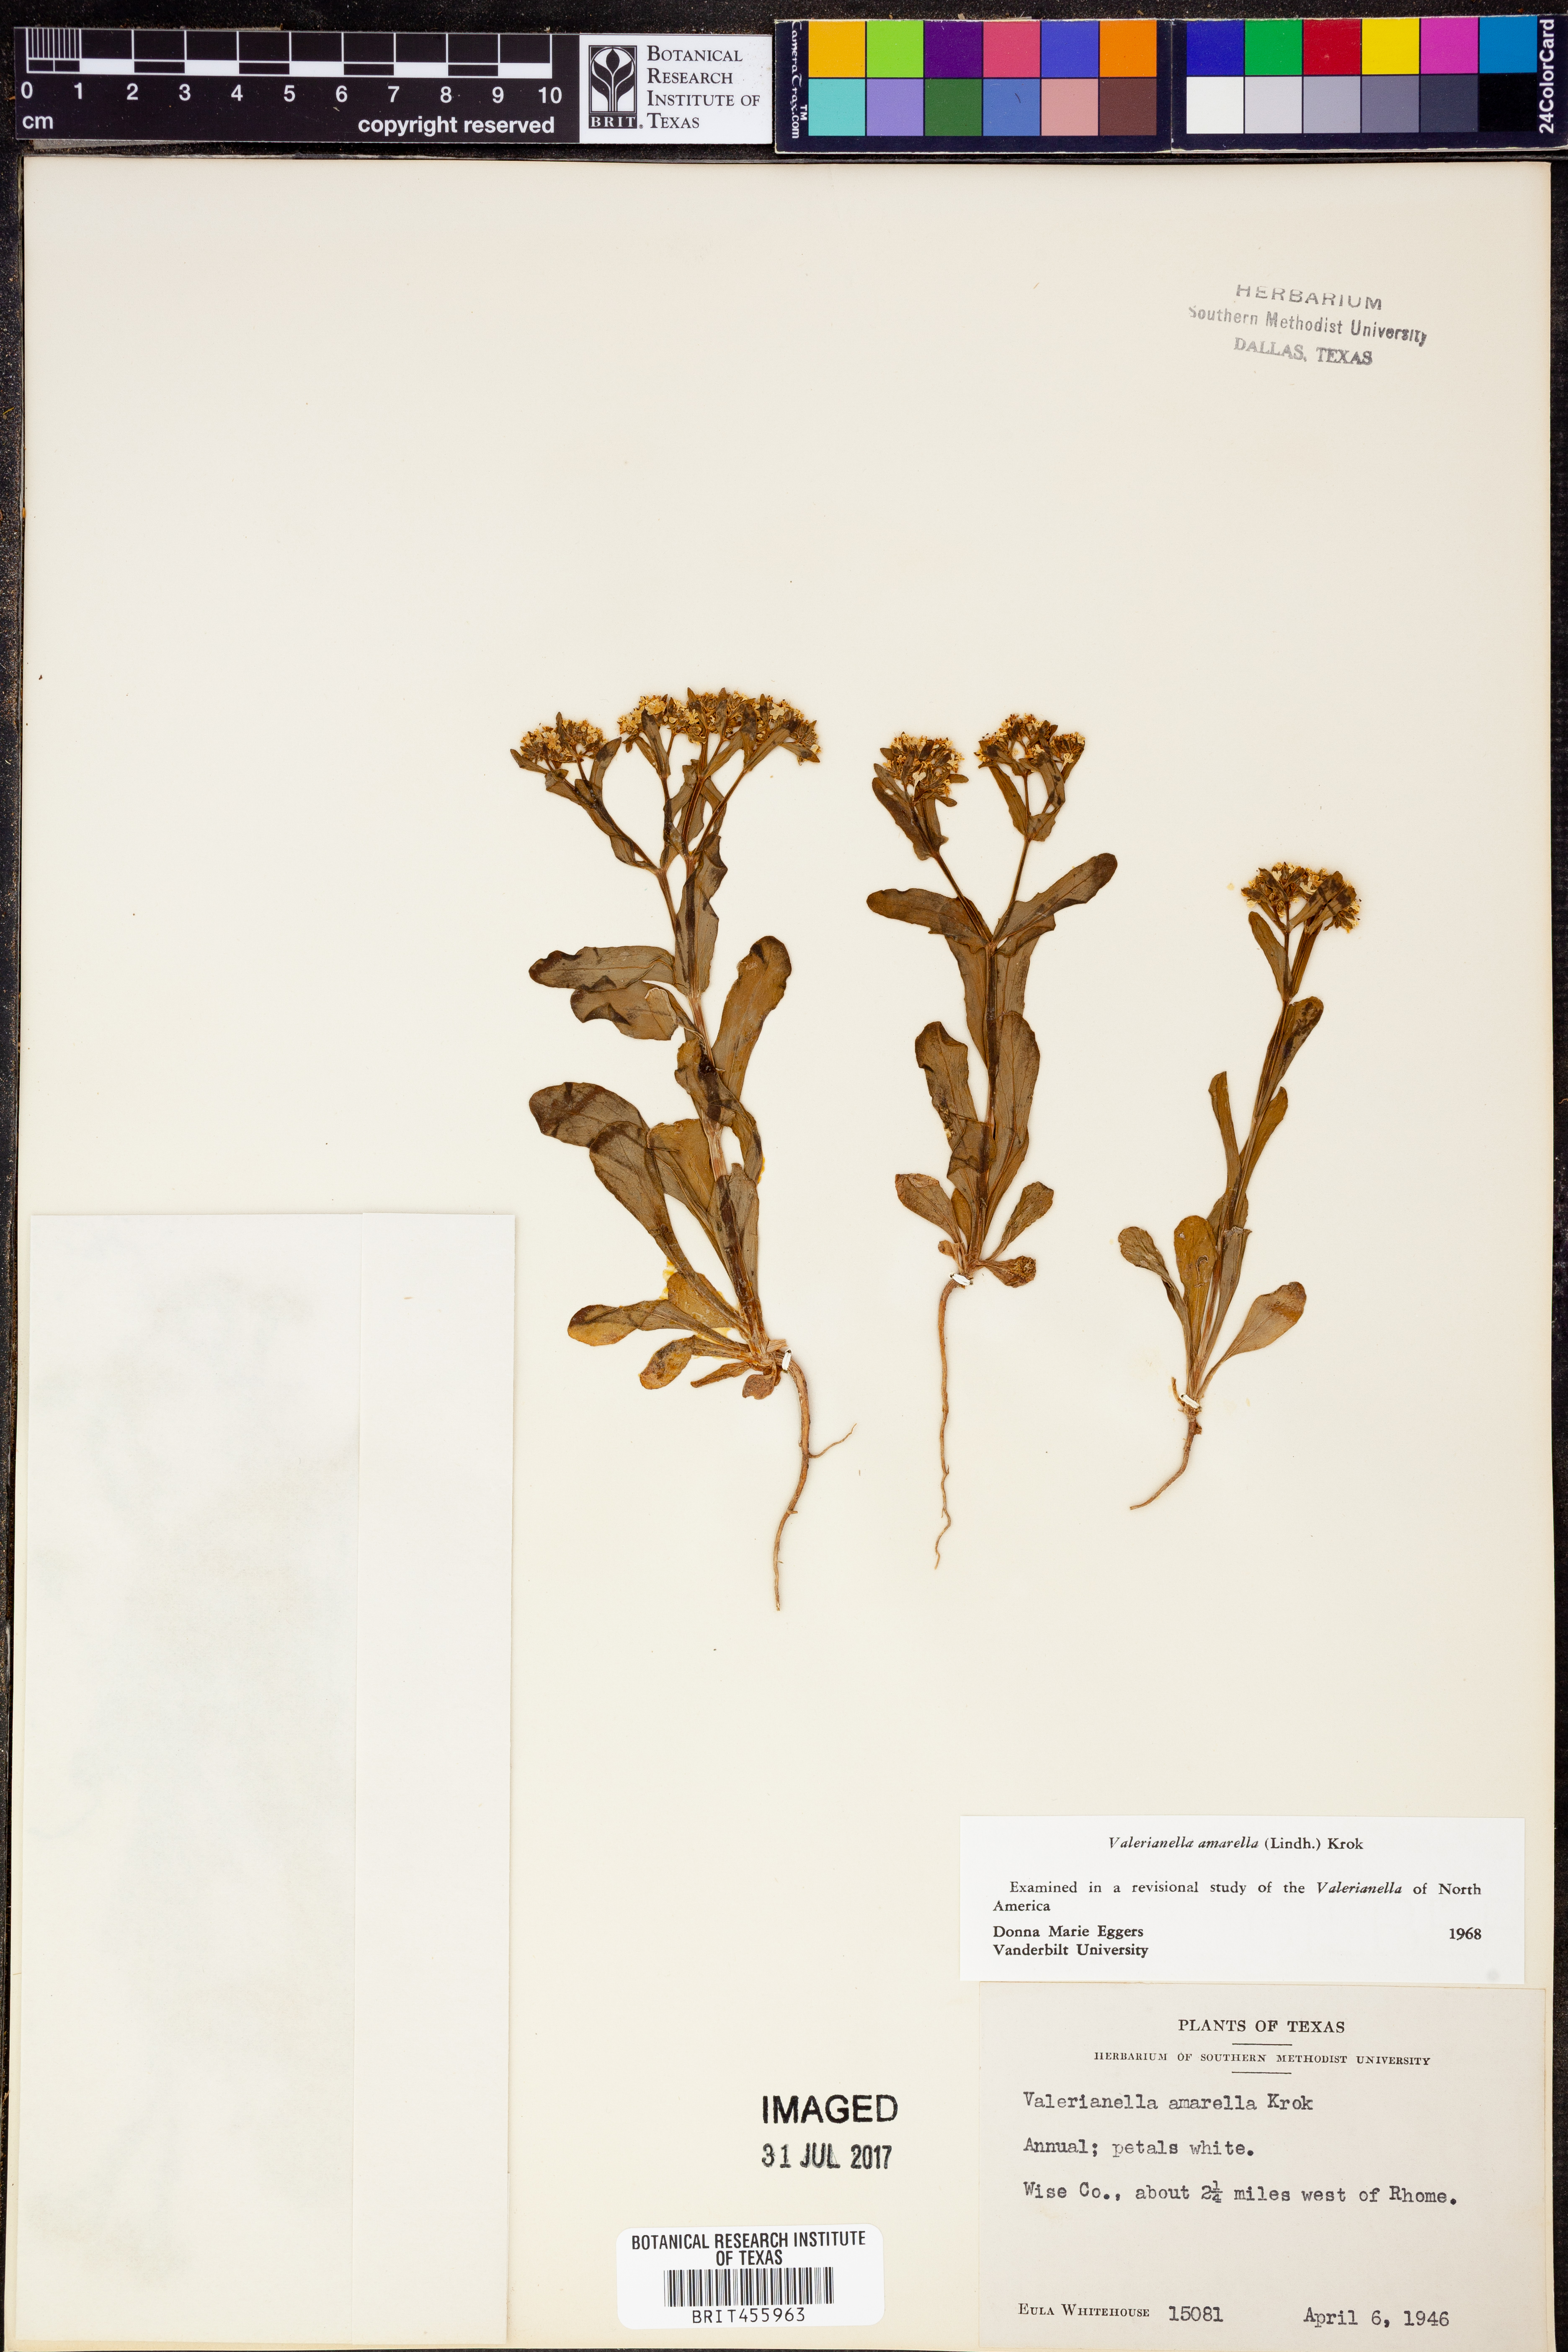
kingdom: Plantae
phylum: Tracheophyta
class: Magnoliopsida
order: Dipsacales
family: Caprifoliaceae
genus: Valerianella
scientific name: Valerianella amarella
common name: Hariy cornsalad
